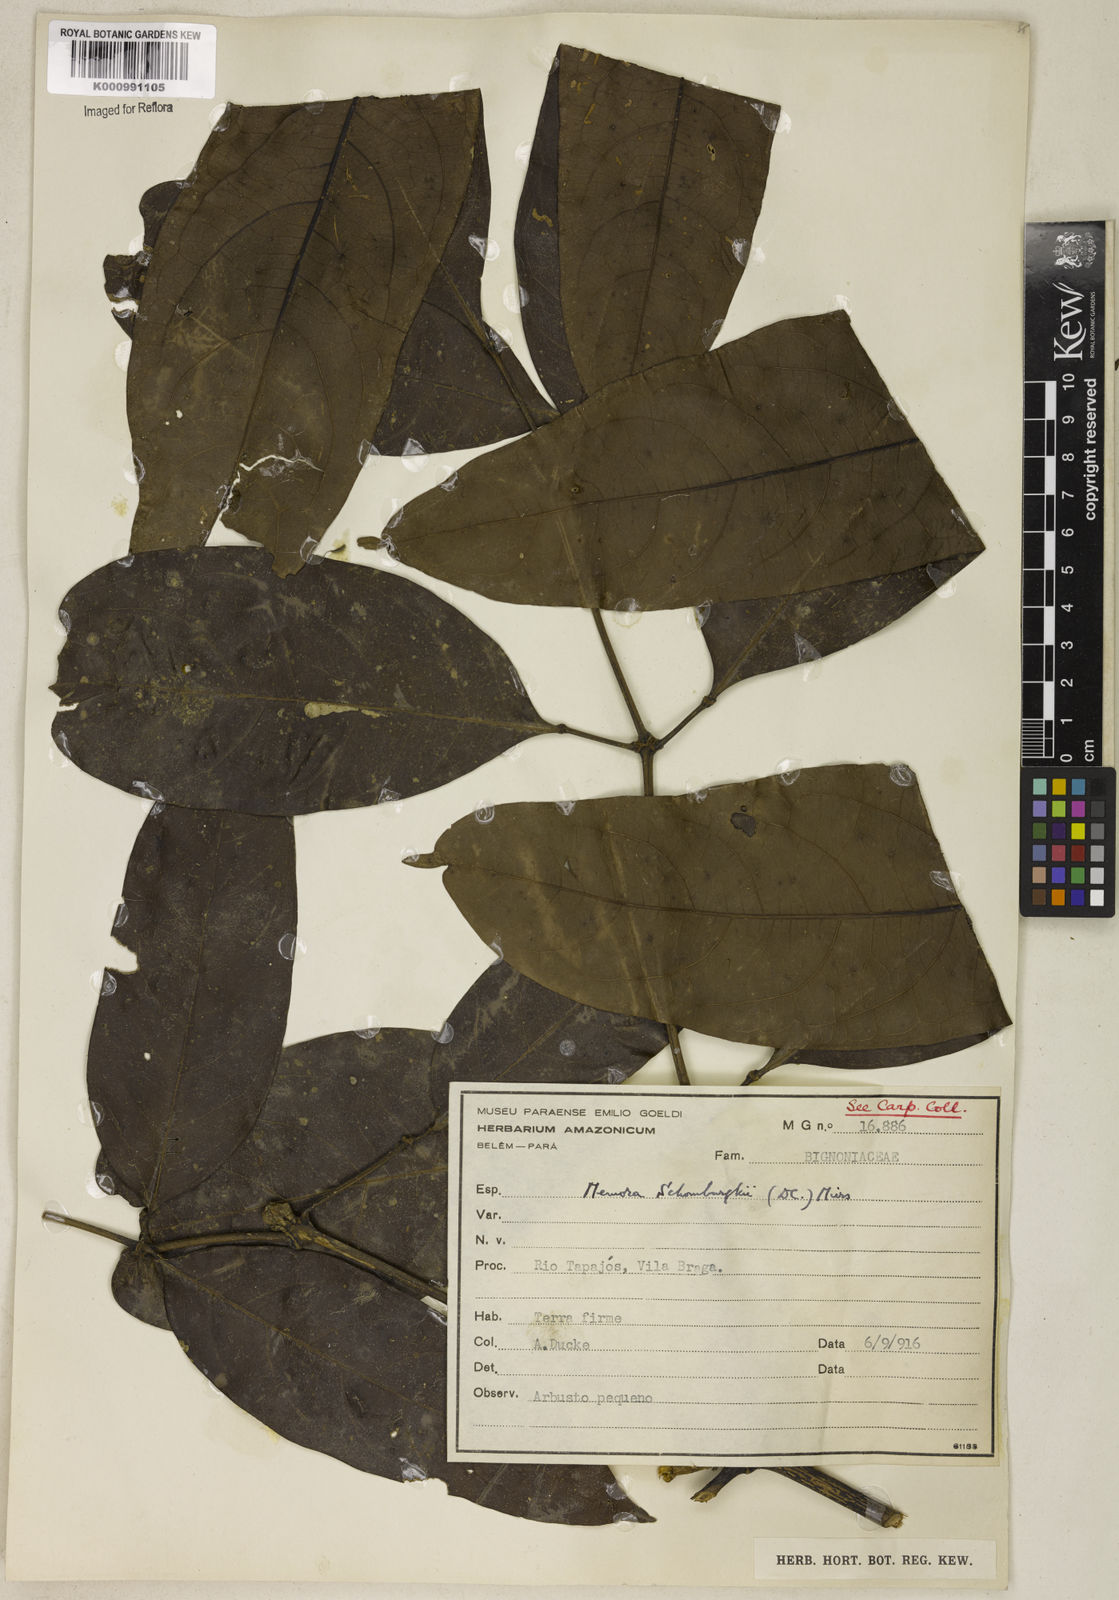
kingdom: Plantae
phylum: Tracheophyta
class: Magnoliopsida
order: Lamiales
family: Bignoniaceae
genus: Adenocalymma
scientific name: Adenocalymma schomburgkii
